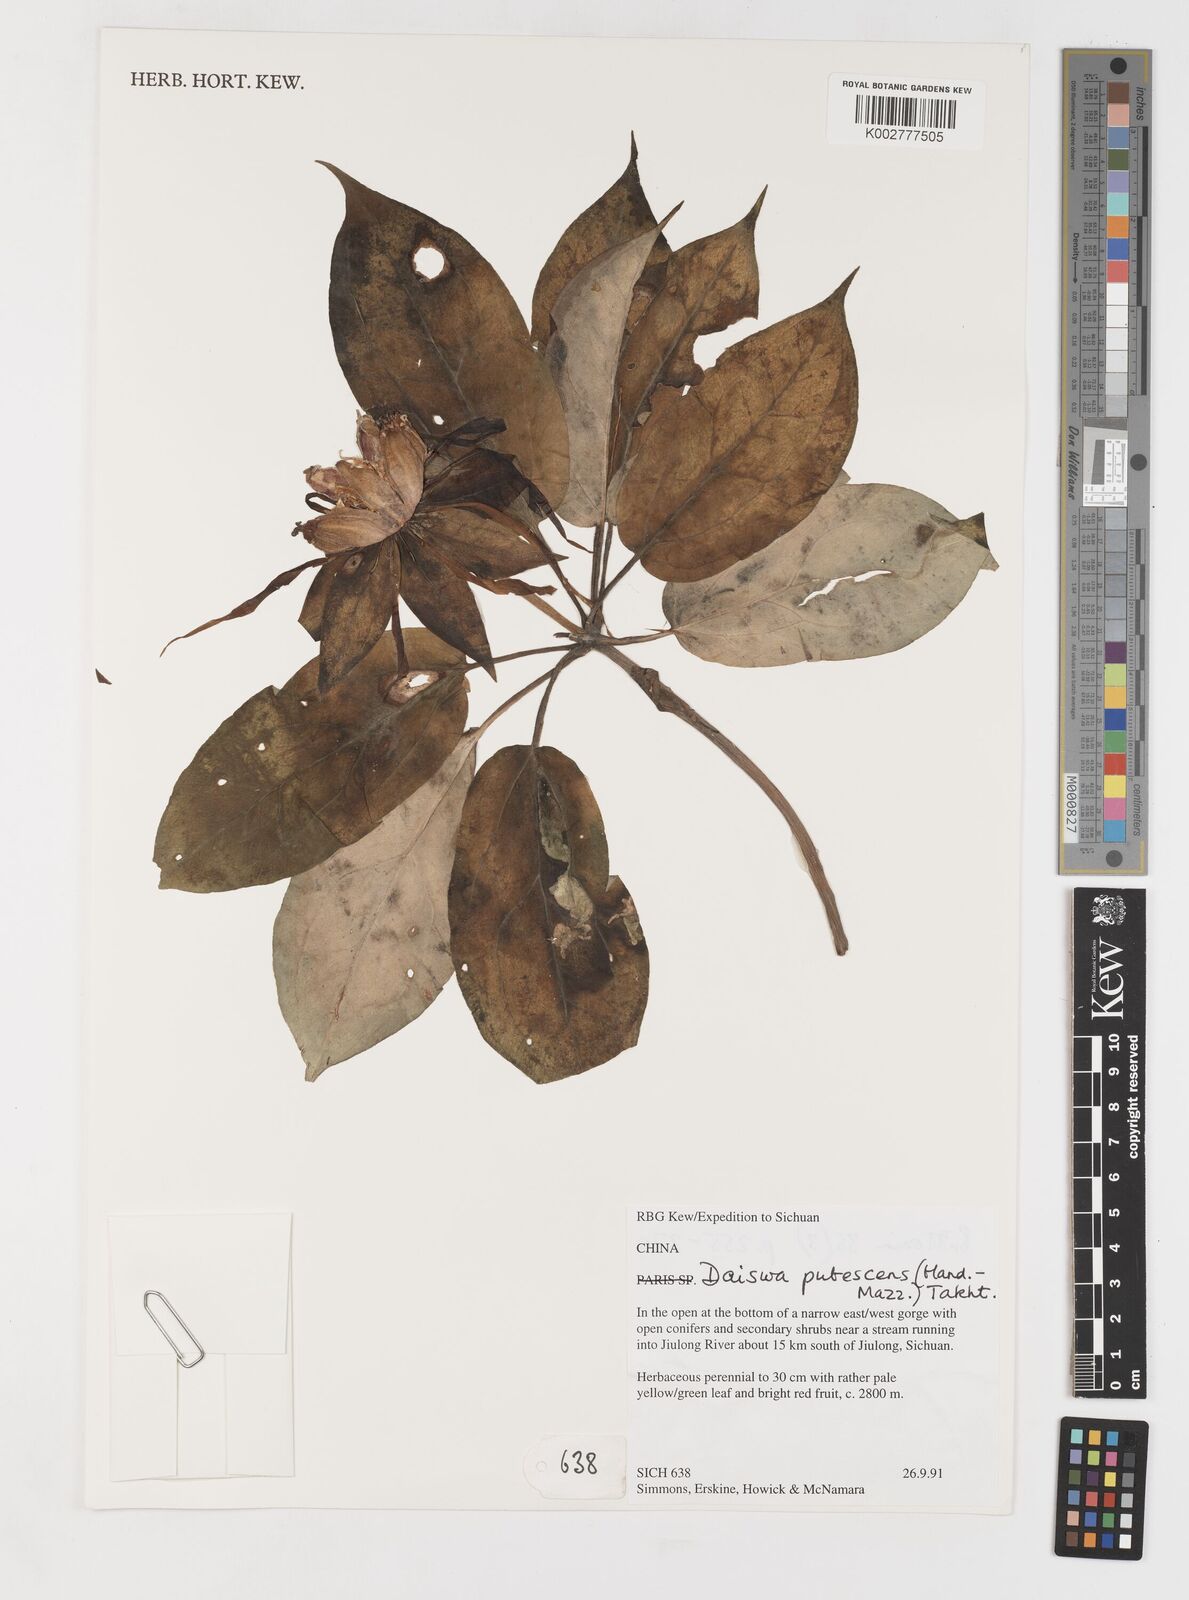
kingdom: Plantae
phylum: Tracheophyta
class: Liliopsida
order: Liliales
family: Melanthiaceae
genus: Paris
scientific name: Paris mairei
